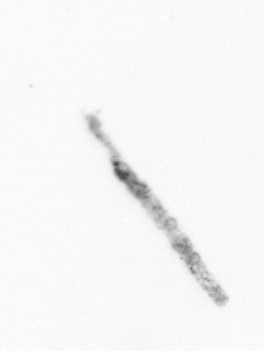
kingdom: Chromista
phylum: Ochrophyta
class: Bacillariophyceae
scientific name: Bacillariophyceae
